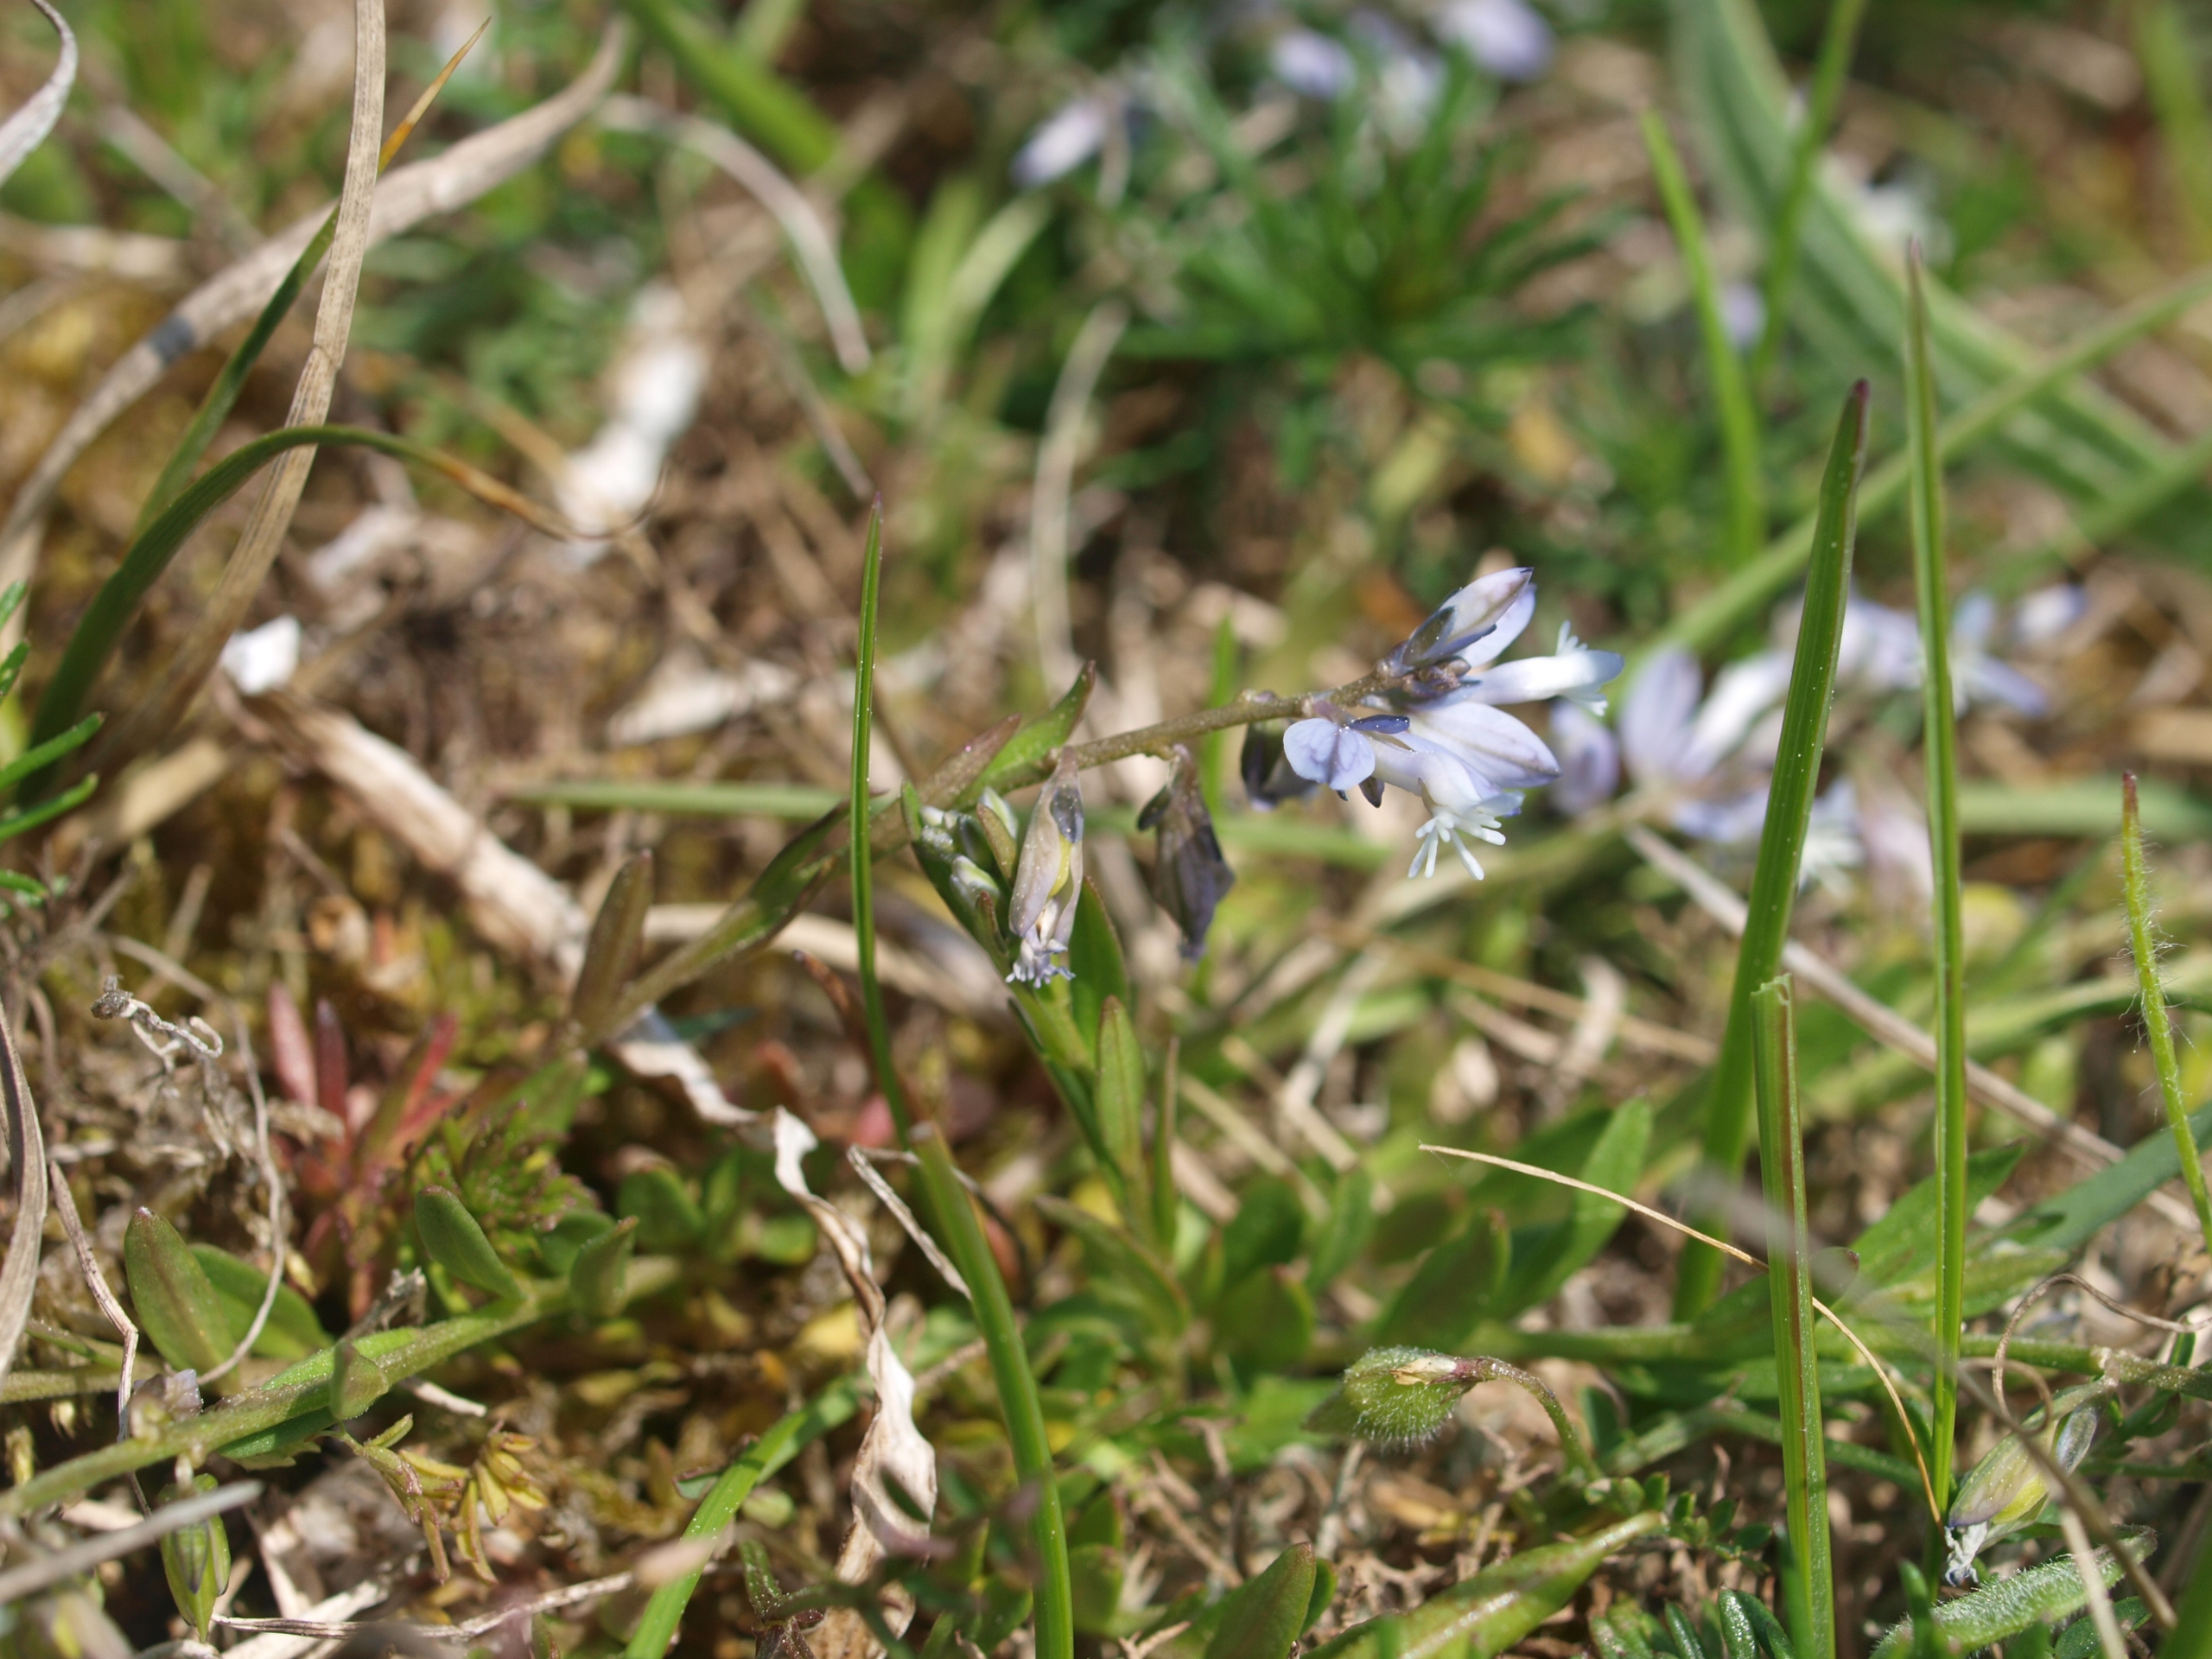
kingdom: Plantae
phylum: Tracheophyta
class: Magnoliopsida
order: Fabales
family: Polygalaceae
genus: Polygala
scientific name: Polygala vulgaris
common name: Almindelig mælkeurt
